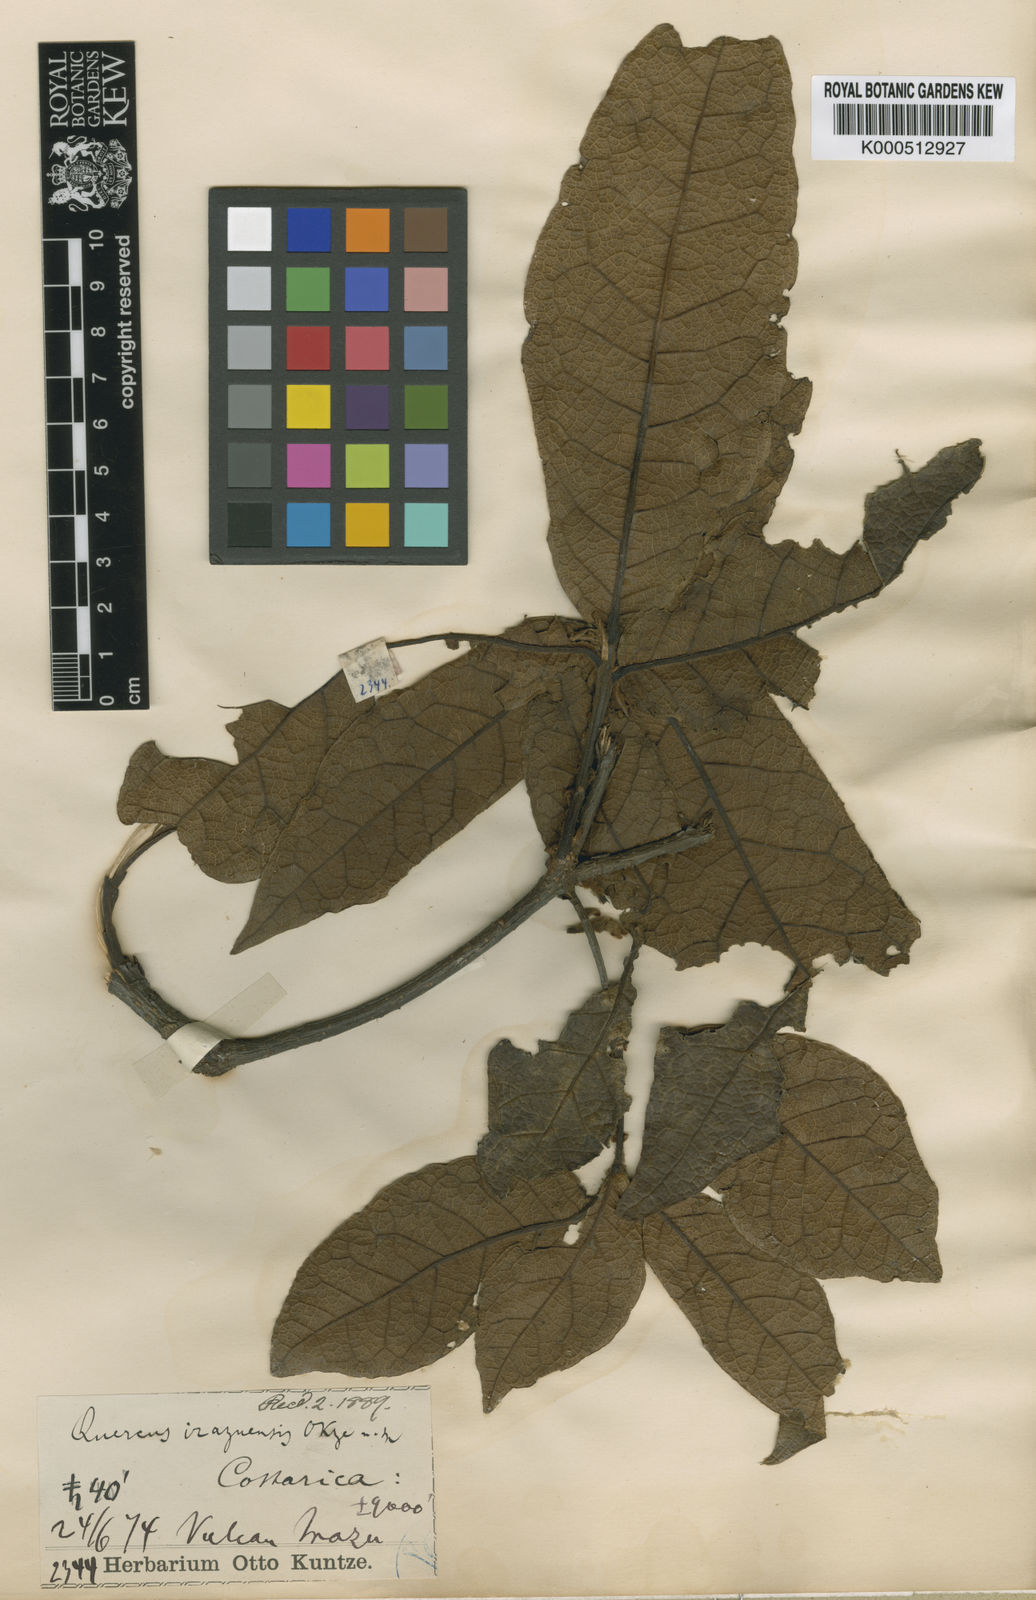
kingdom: Plantae
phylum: Tracheophyta
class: Magnoliopsida
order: Fagales
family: Fagaceae
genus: Quercus
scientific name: Quercus costaricensis
